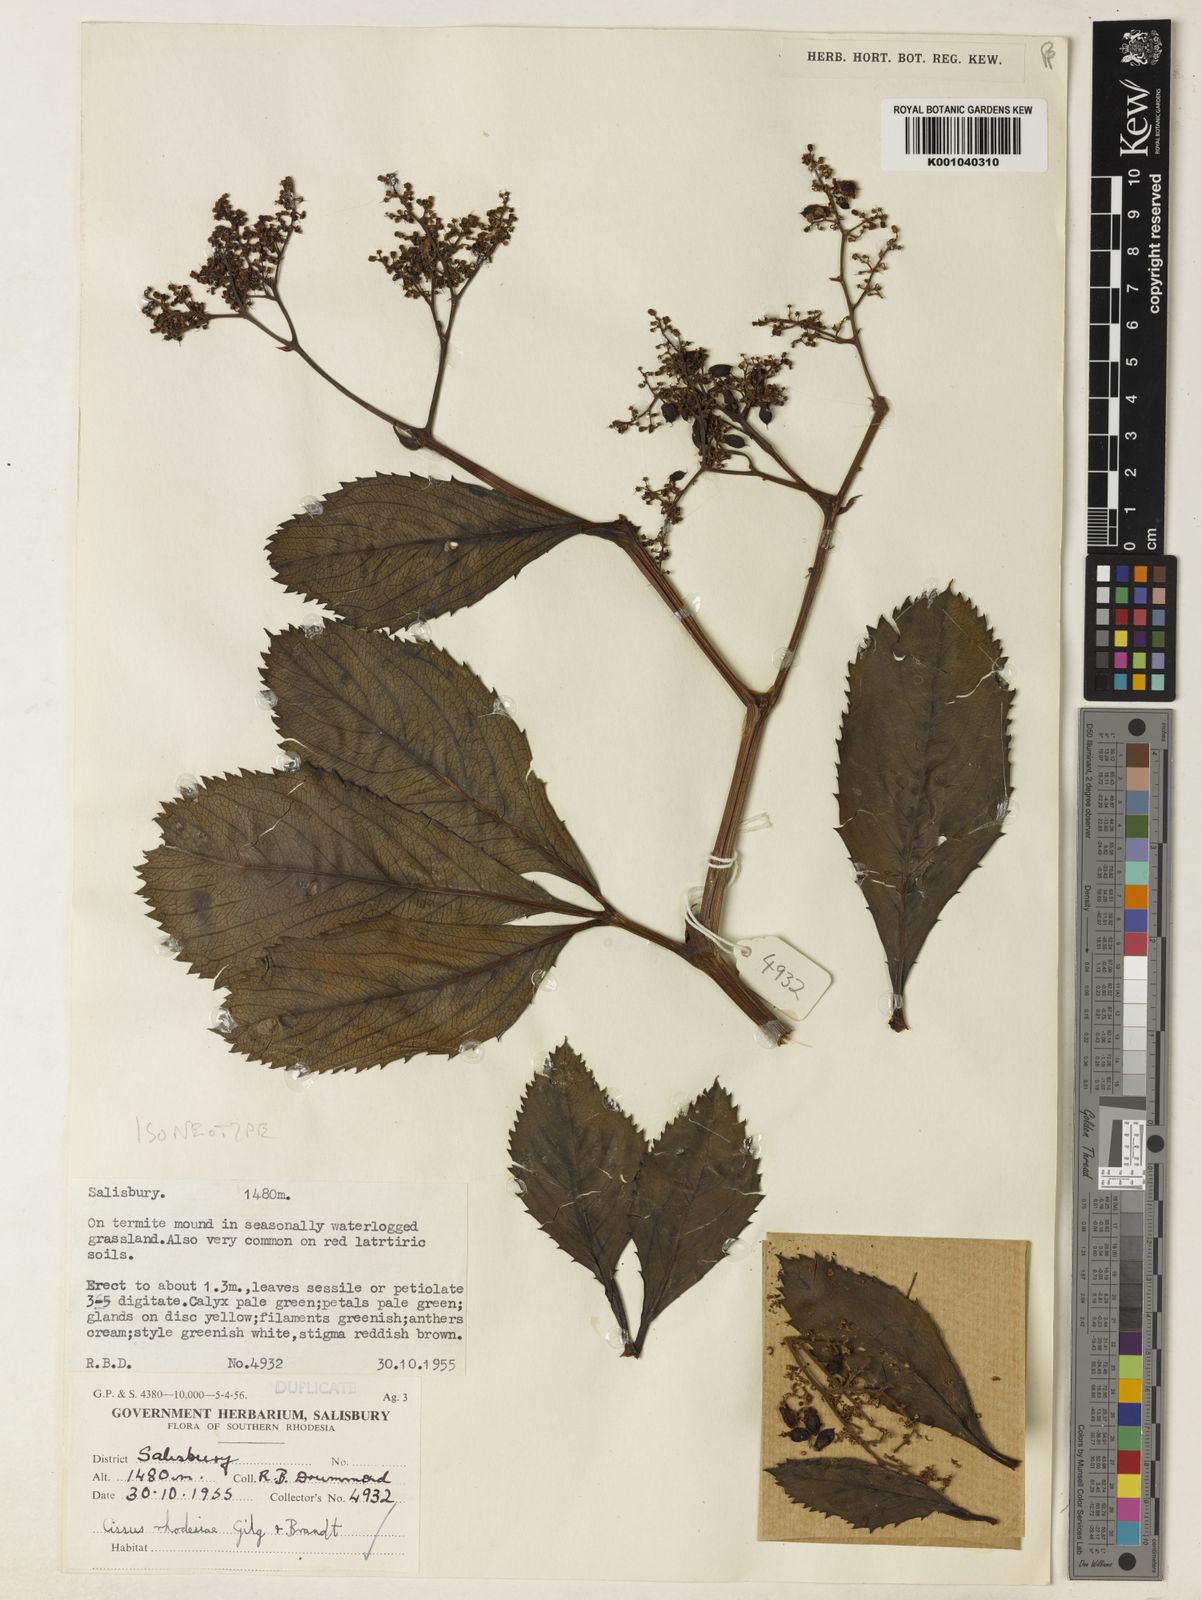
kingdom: Plantae
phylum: Tracheophyta
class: Magnoliopsida
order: Vitales
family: Vitaceae
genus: Cyphostemma
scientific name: Cyphostemma rhodesiae
